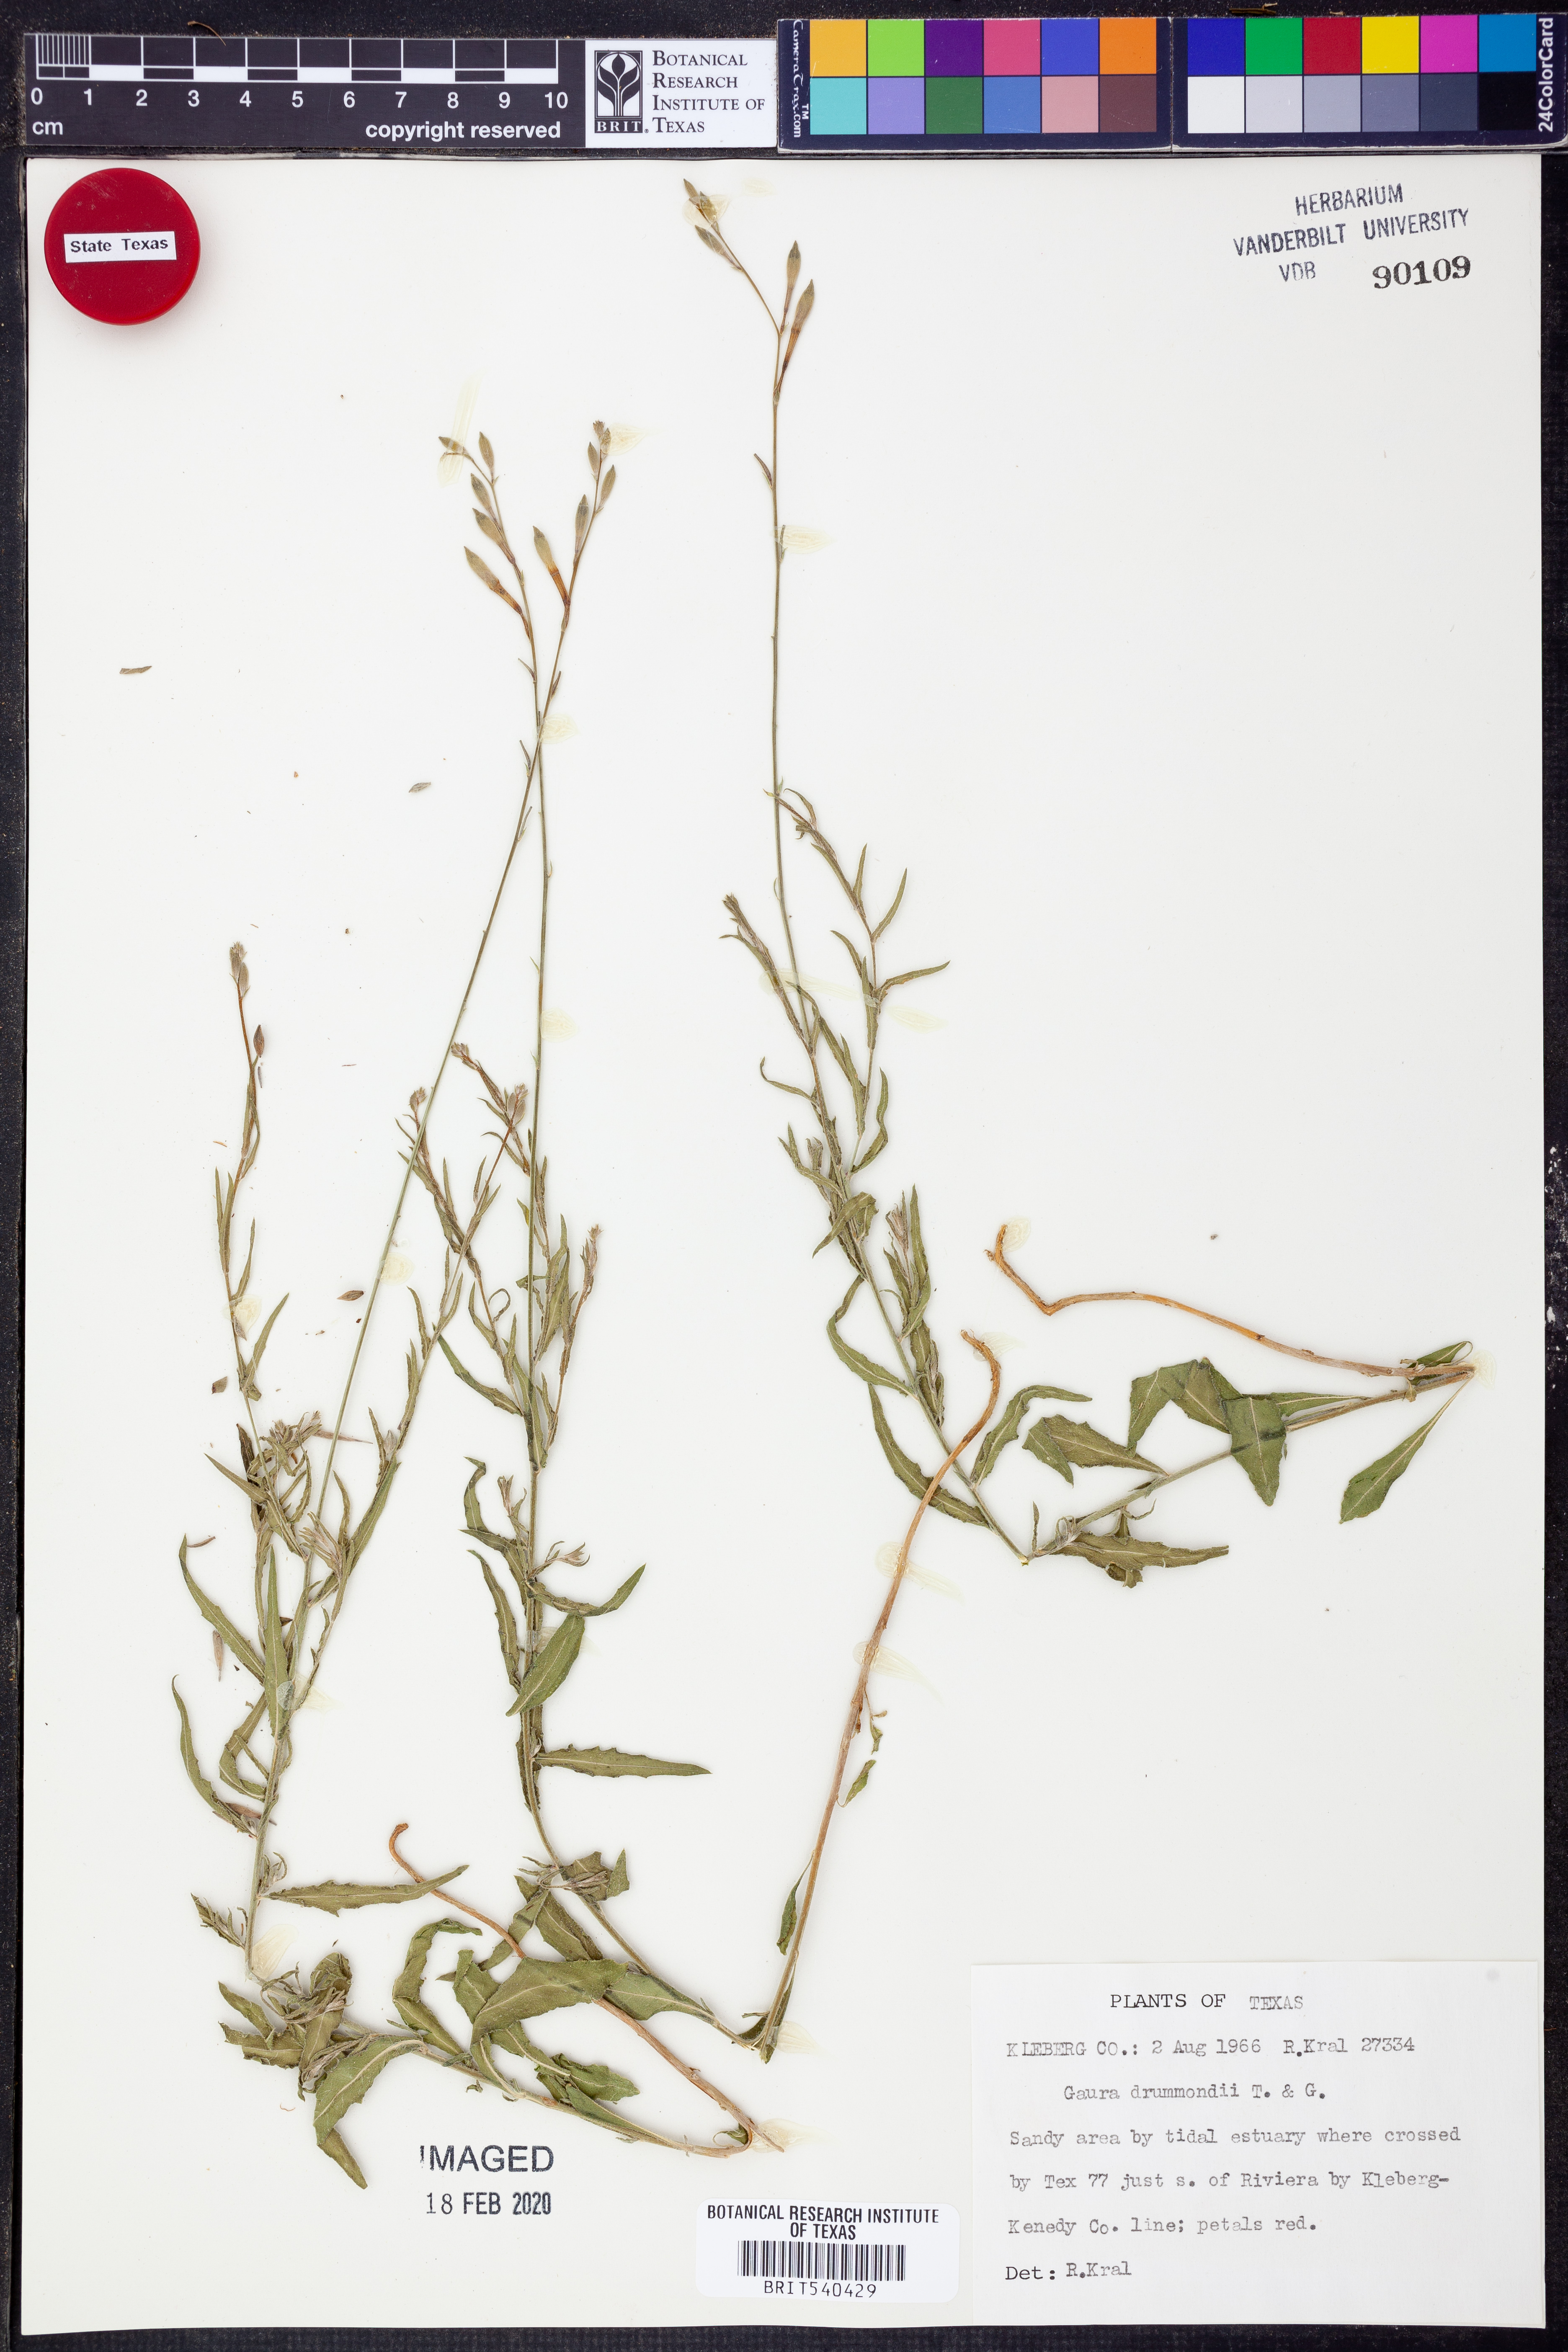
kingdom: Plantae
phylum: Tracheophyta
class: Magnoliopsida
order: Myrtales
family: Onagraceae
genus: Oenothera
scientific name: Oenothera hispida
